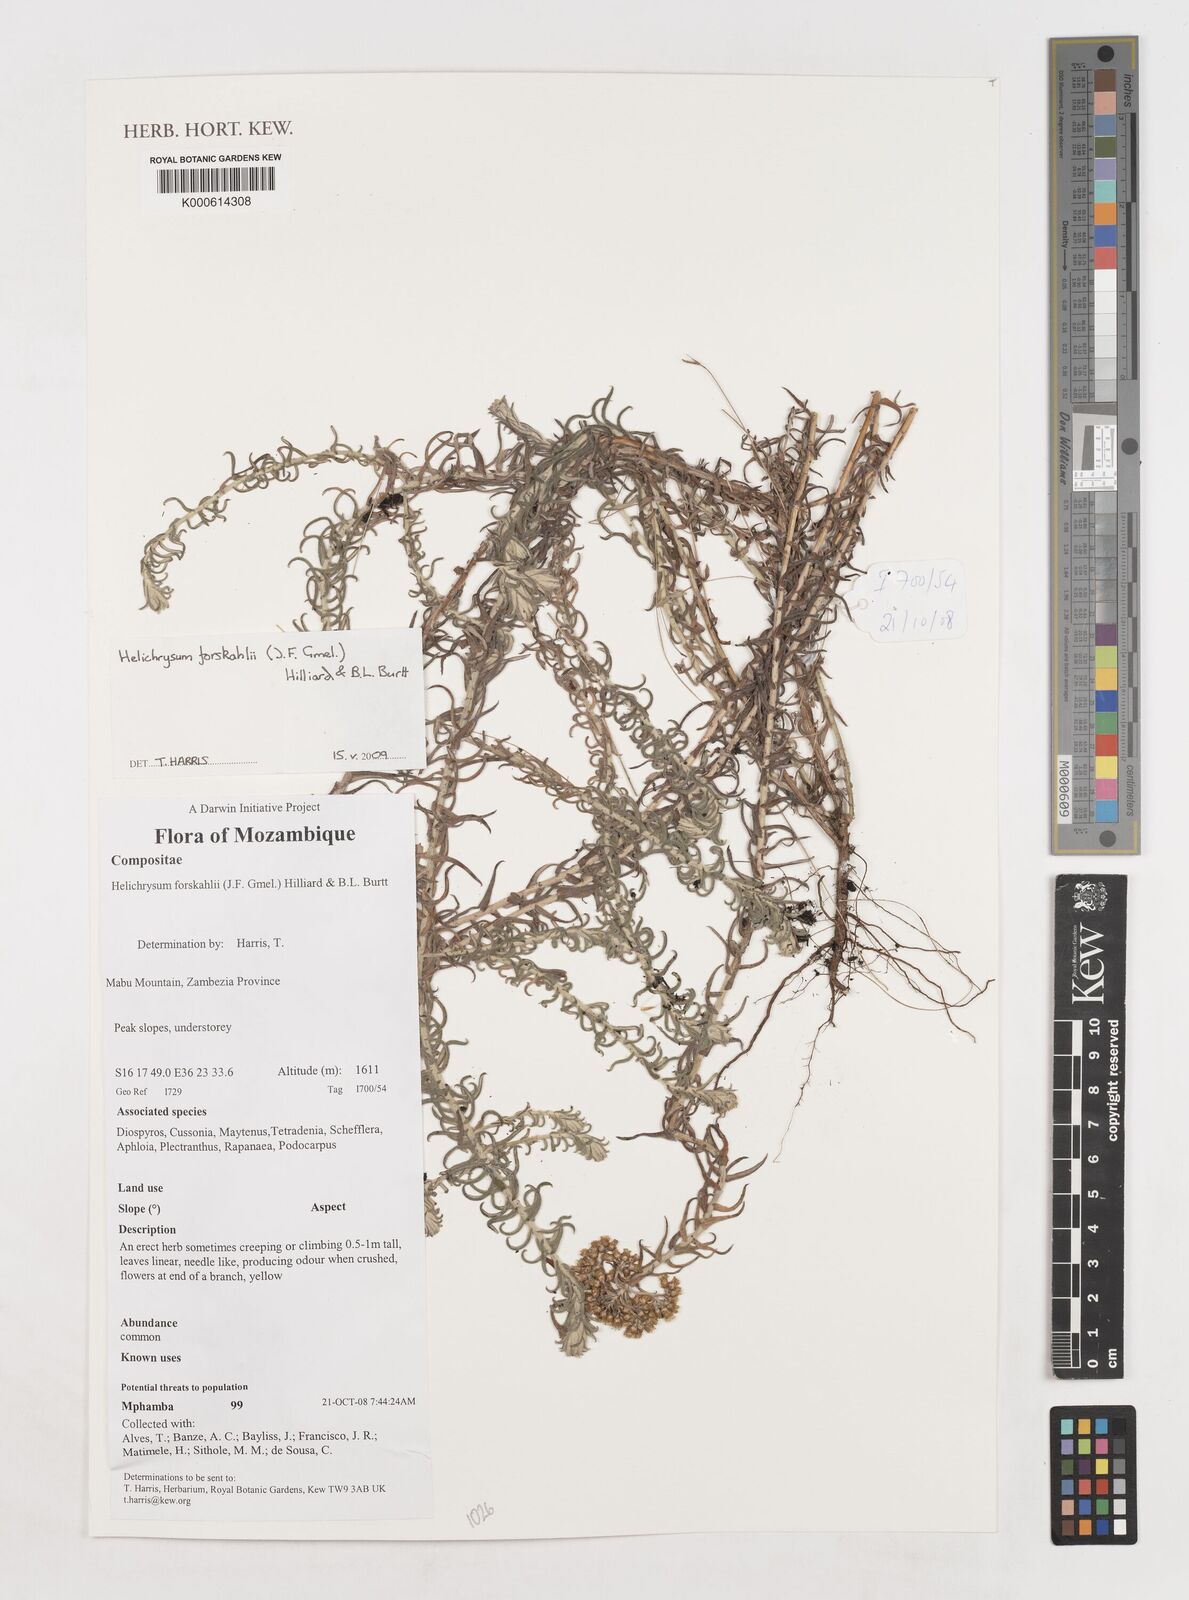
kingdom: Plantae
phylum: Tracheophyta
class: Magnoliopsida
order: Asterales
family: Asteraceae
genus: Helichrysum
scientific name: Helichrysum forskahlii
